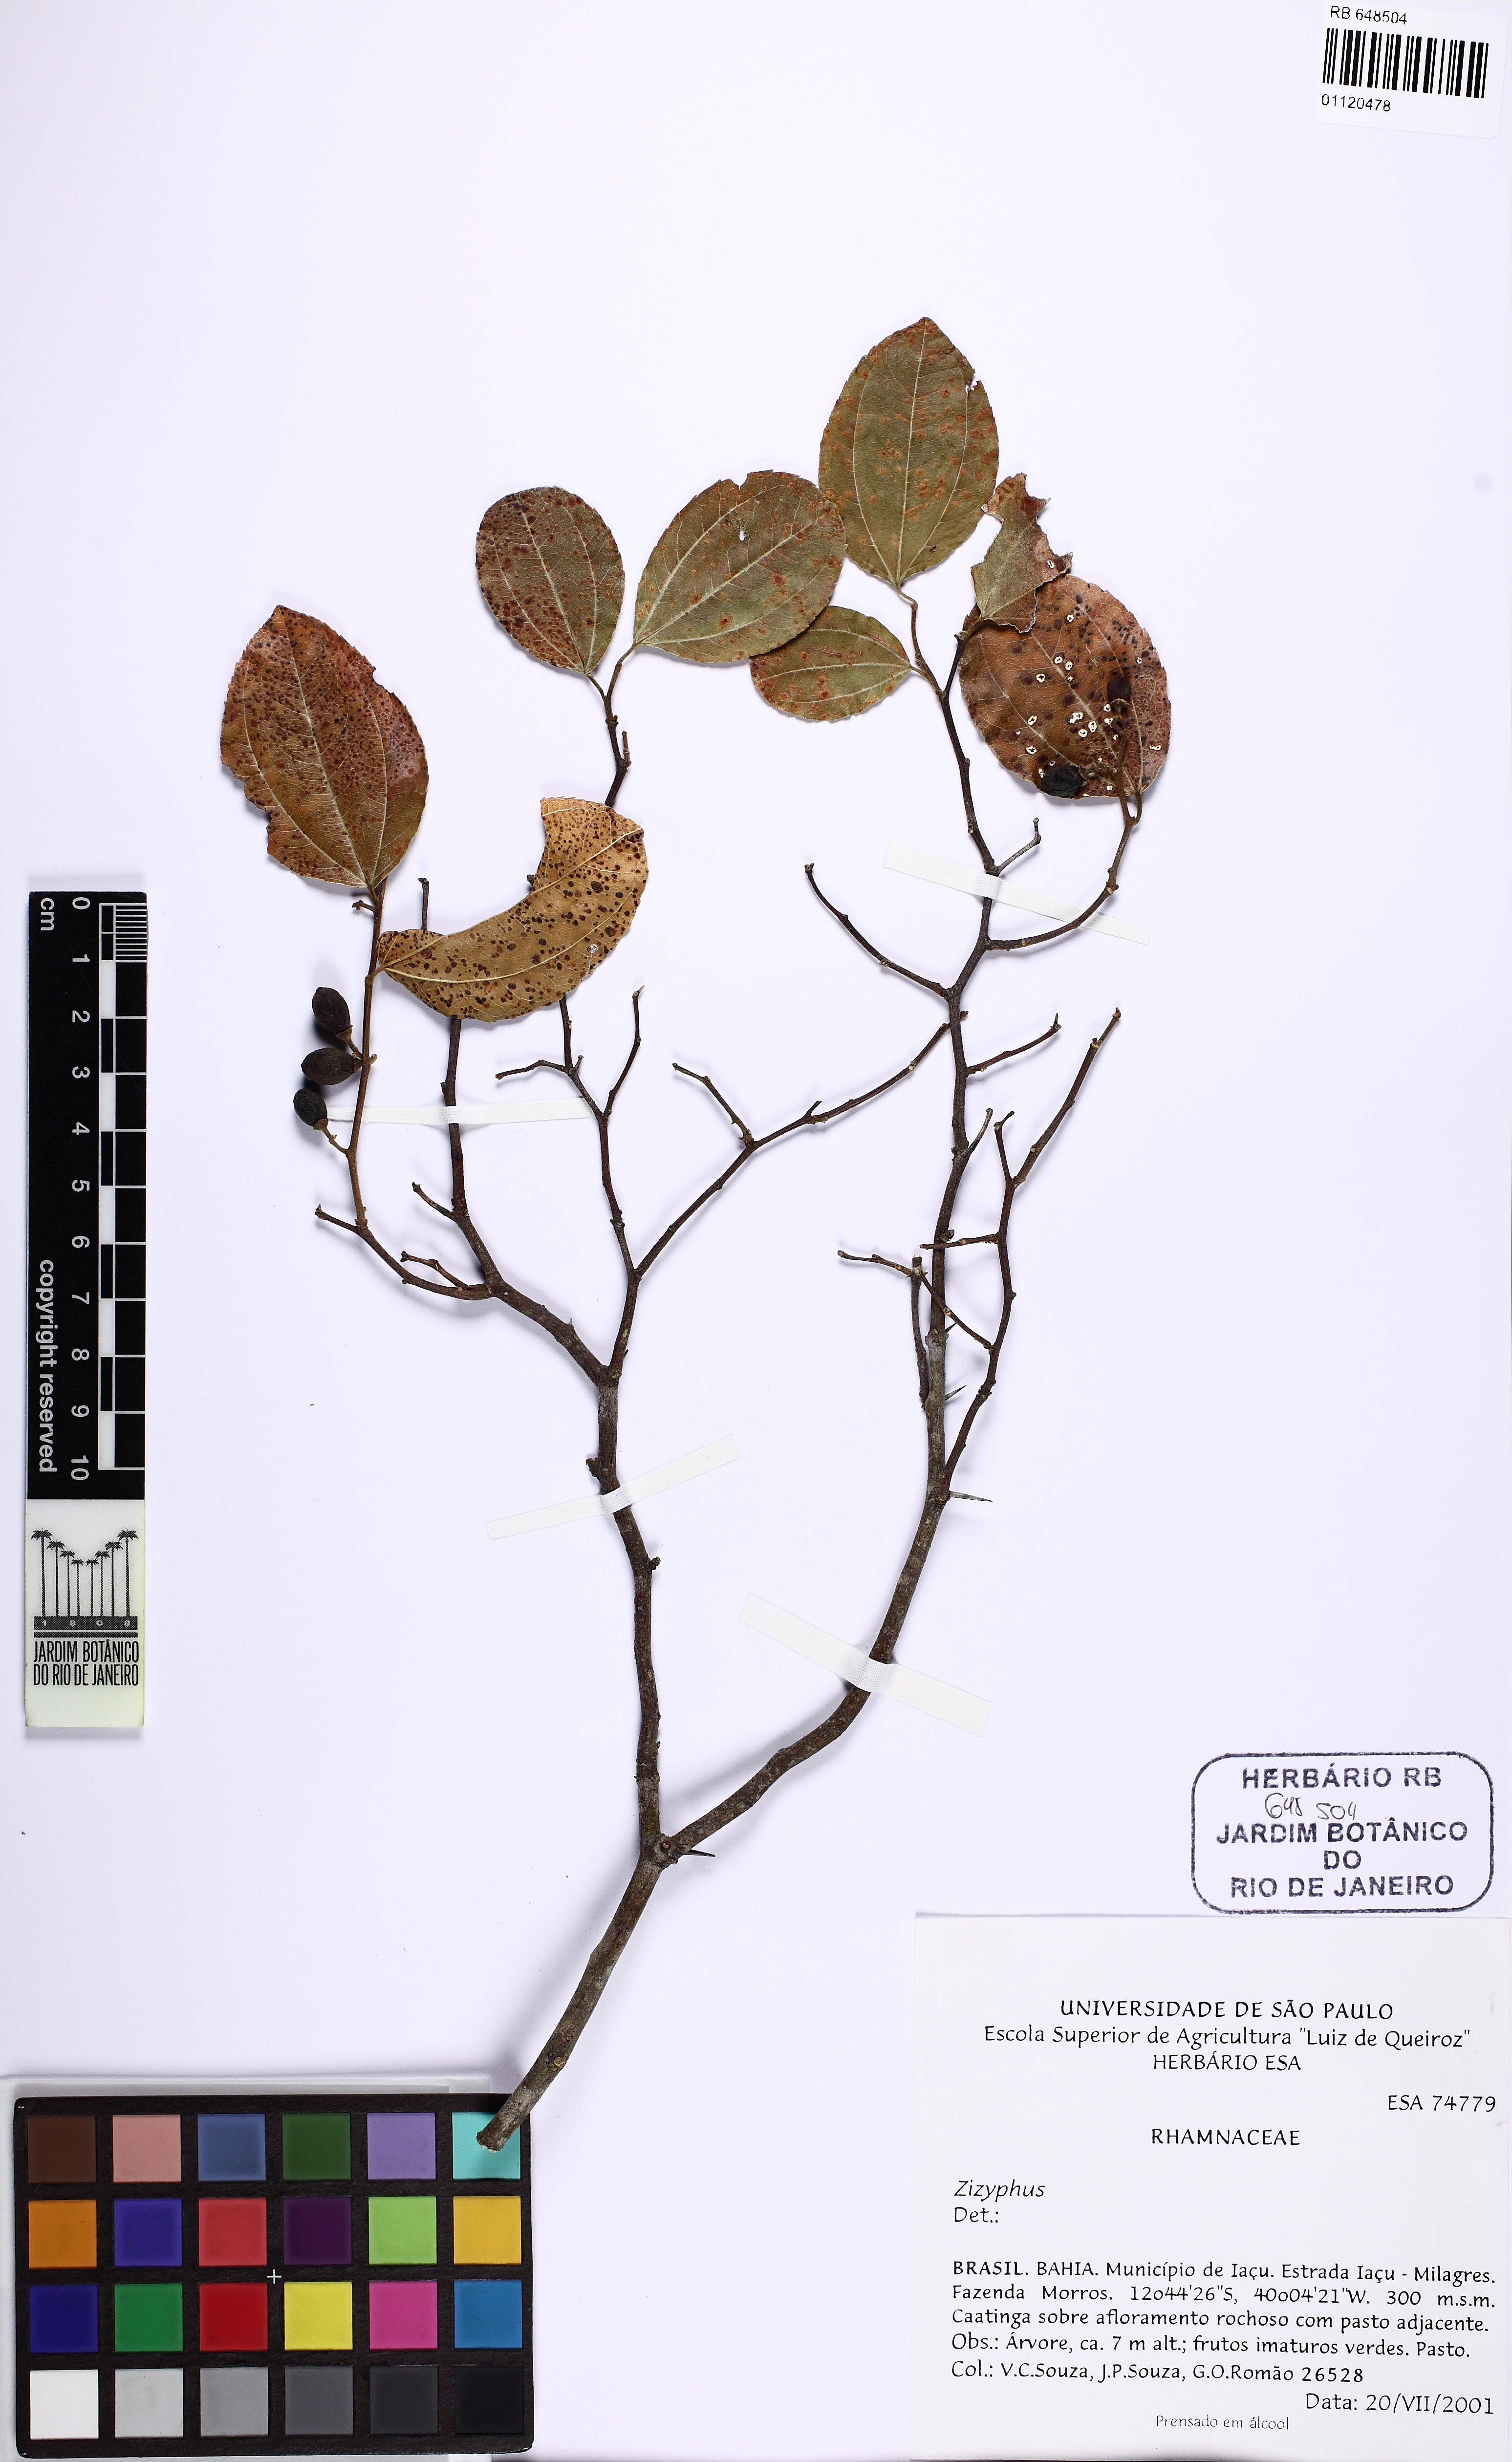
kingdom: Plantae
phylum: Tracheophyta
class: Magnoliopsida
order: Rosales
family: Rhamnaceae
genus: Ziziphus
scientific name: Ziziphus
